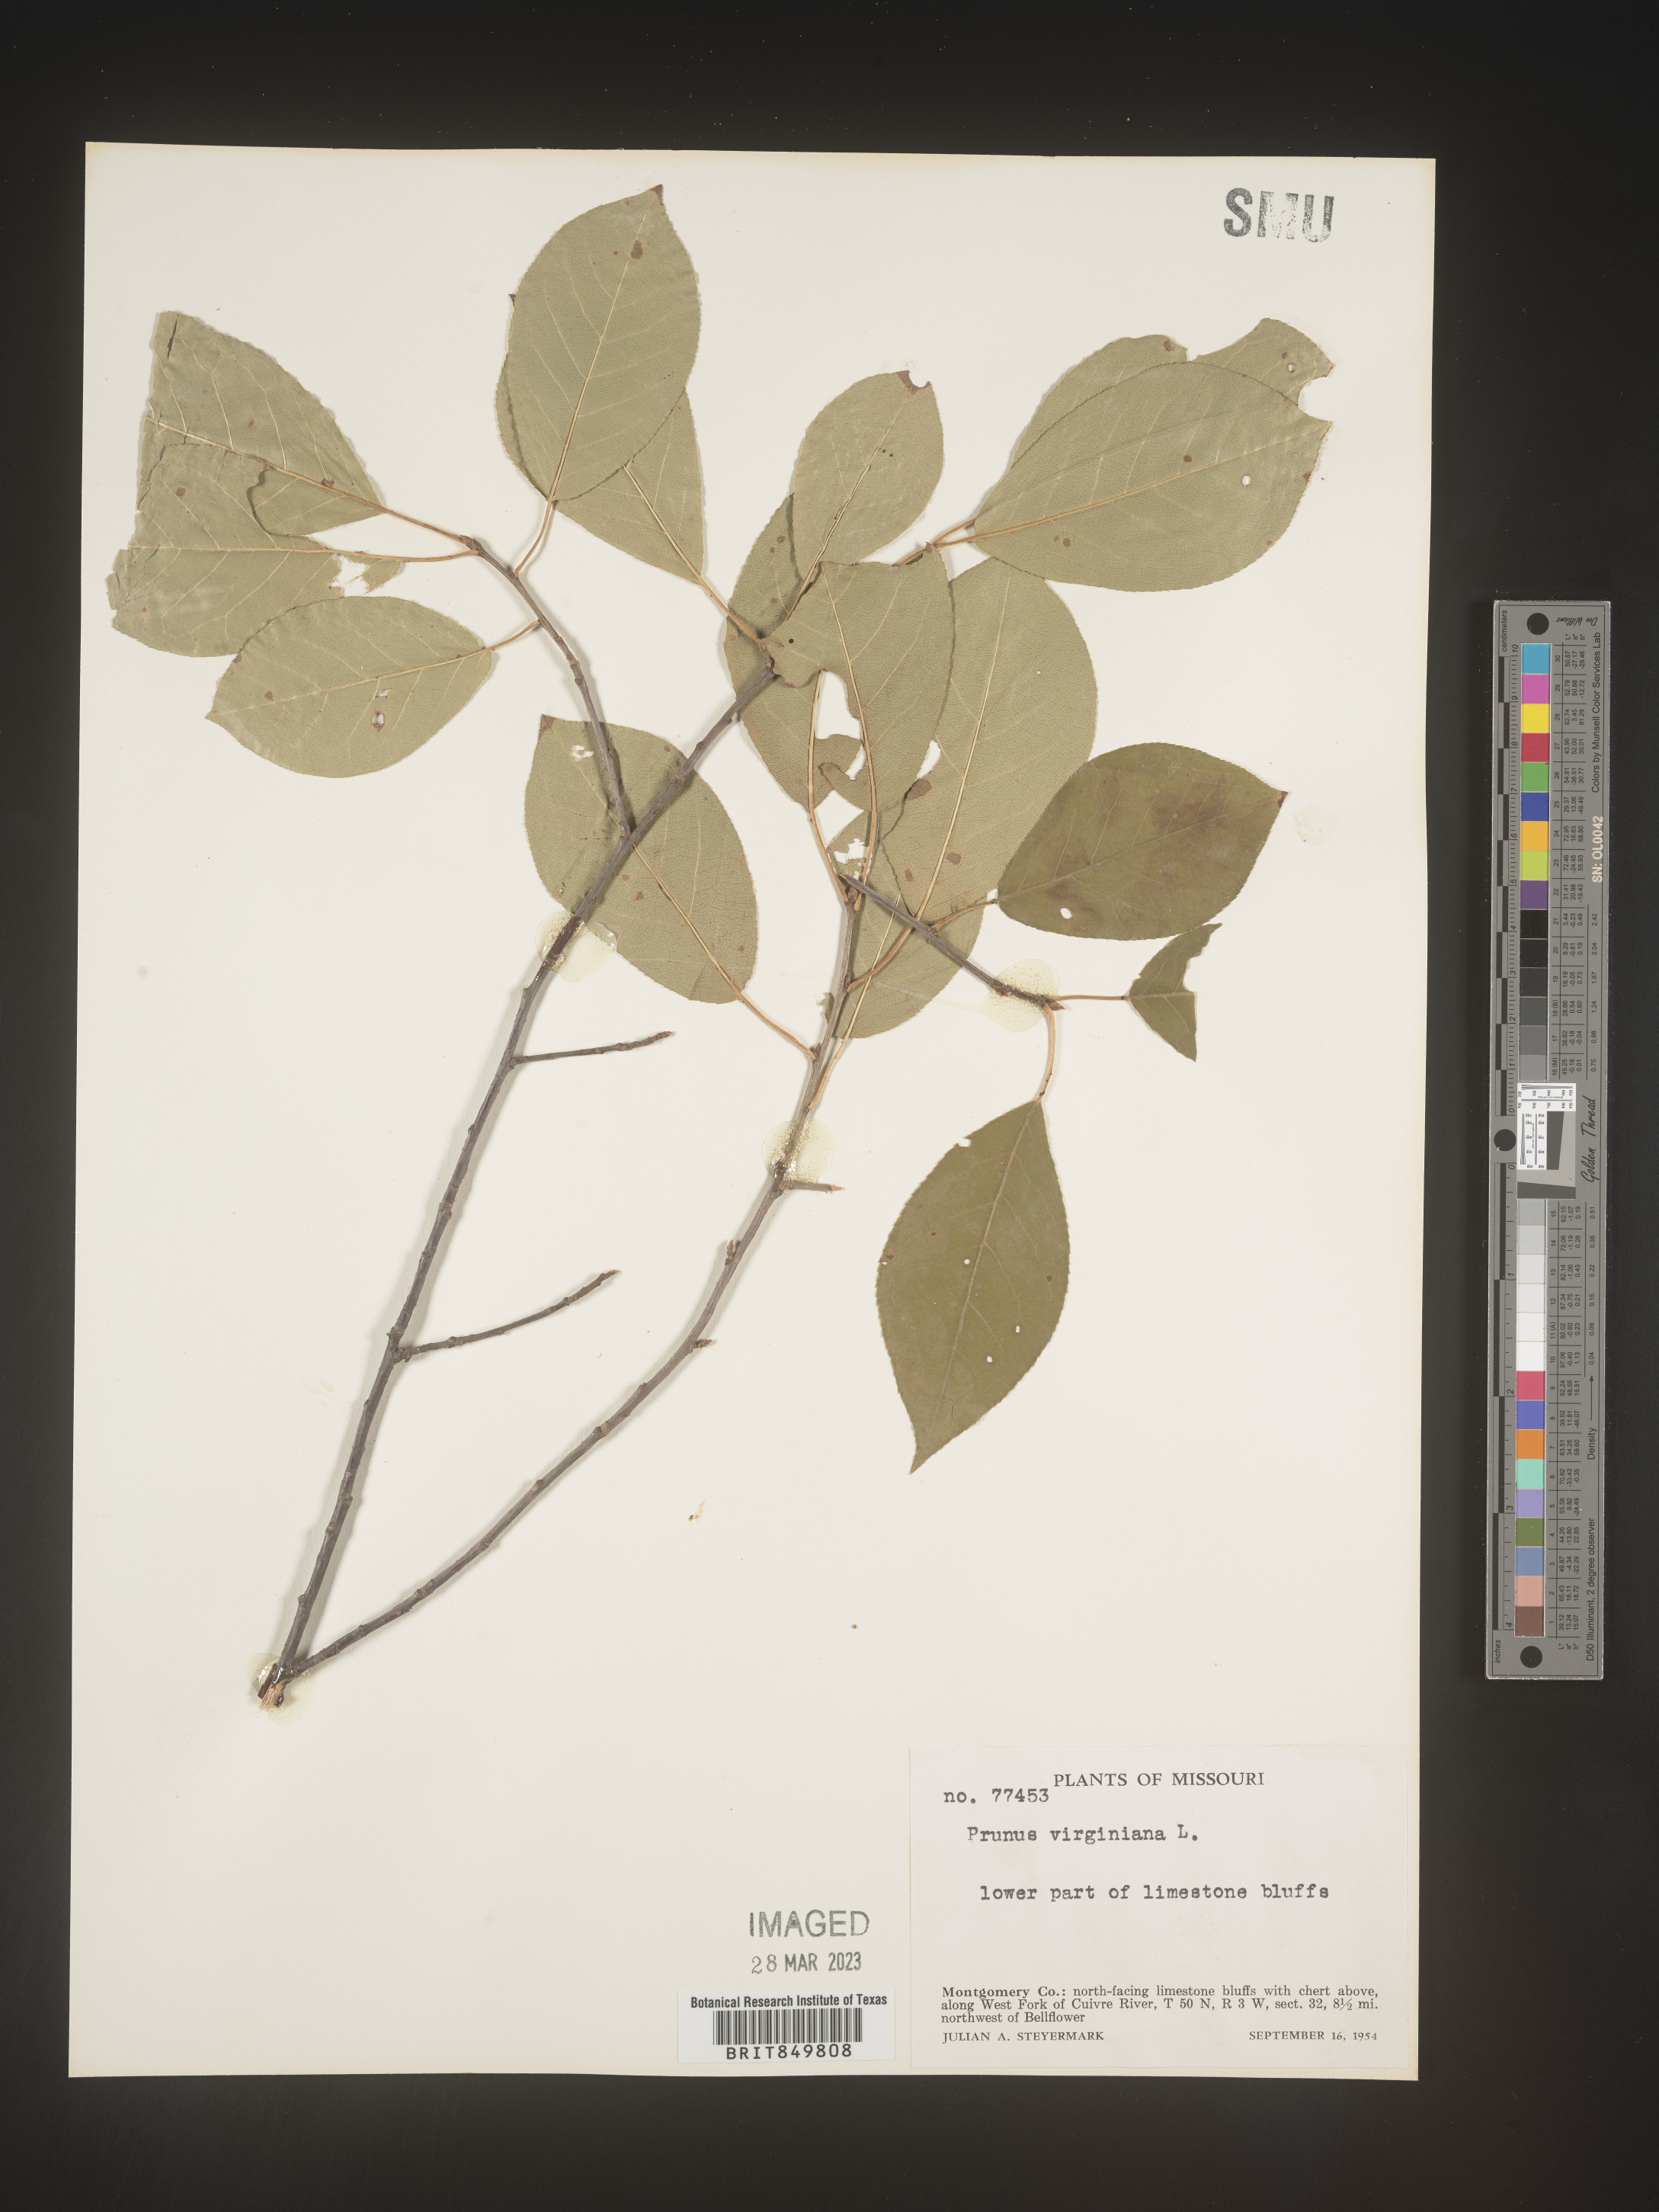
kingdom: Plantae
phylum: Tracheophyta
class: Magnoliopsida
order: Rosales
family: Rosaceae
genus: Prunus
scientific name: Prunus virginiana
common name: Chokecherry
